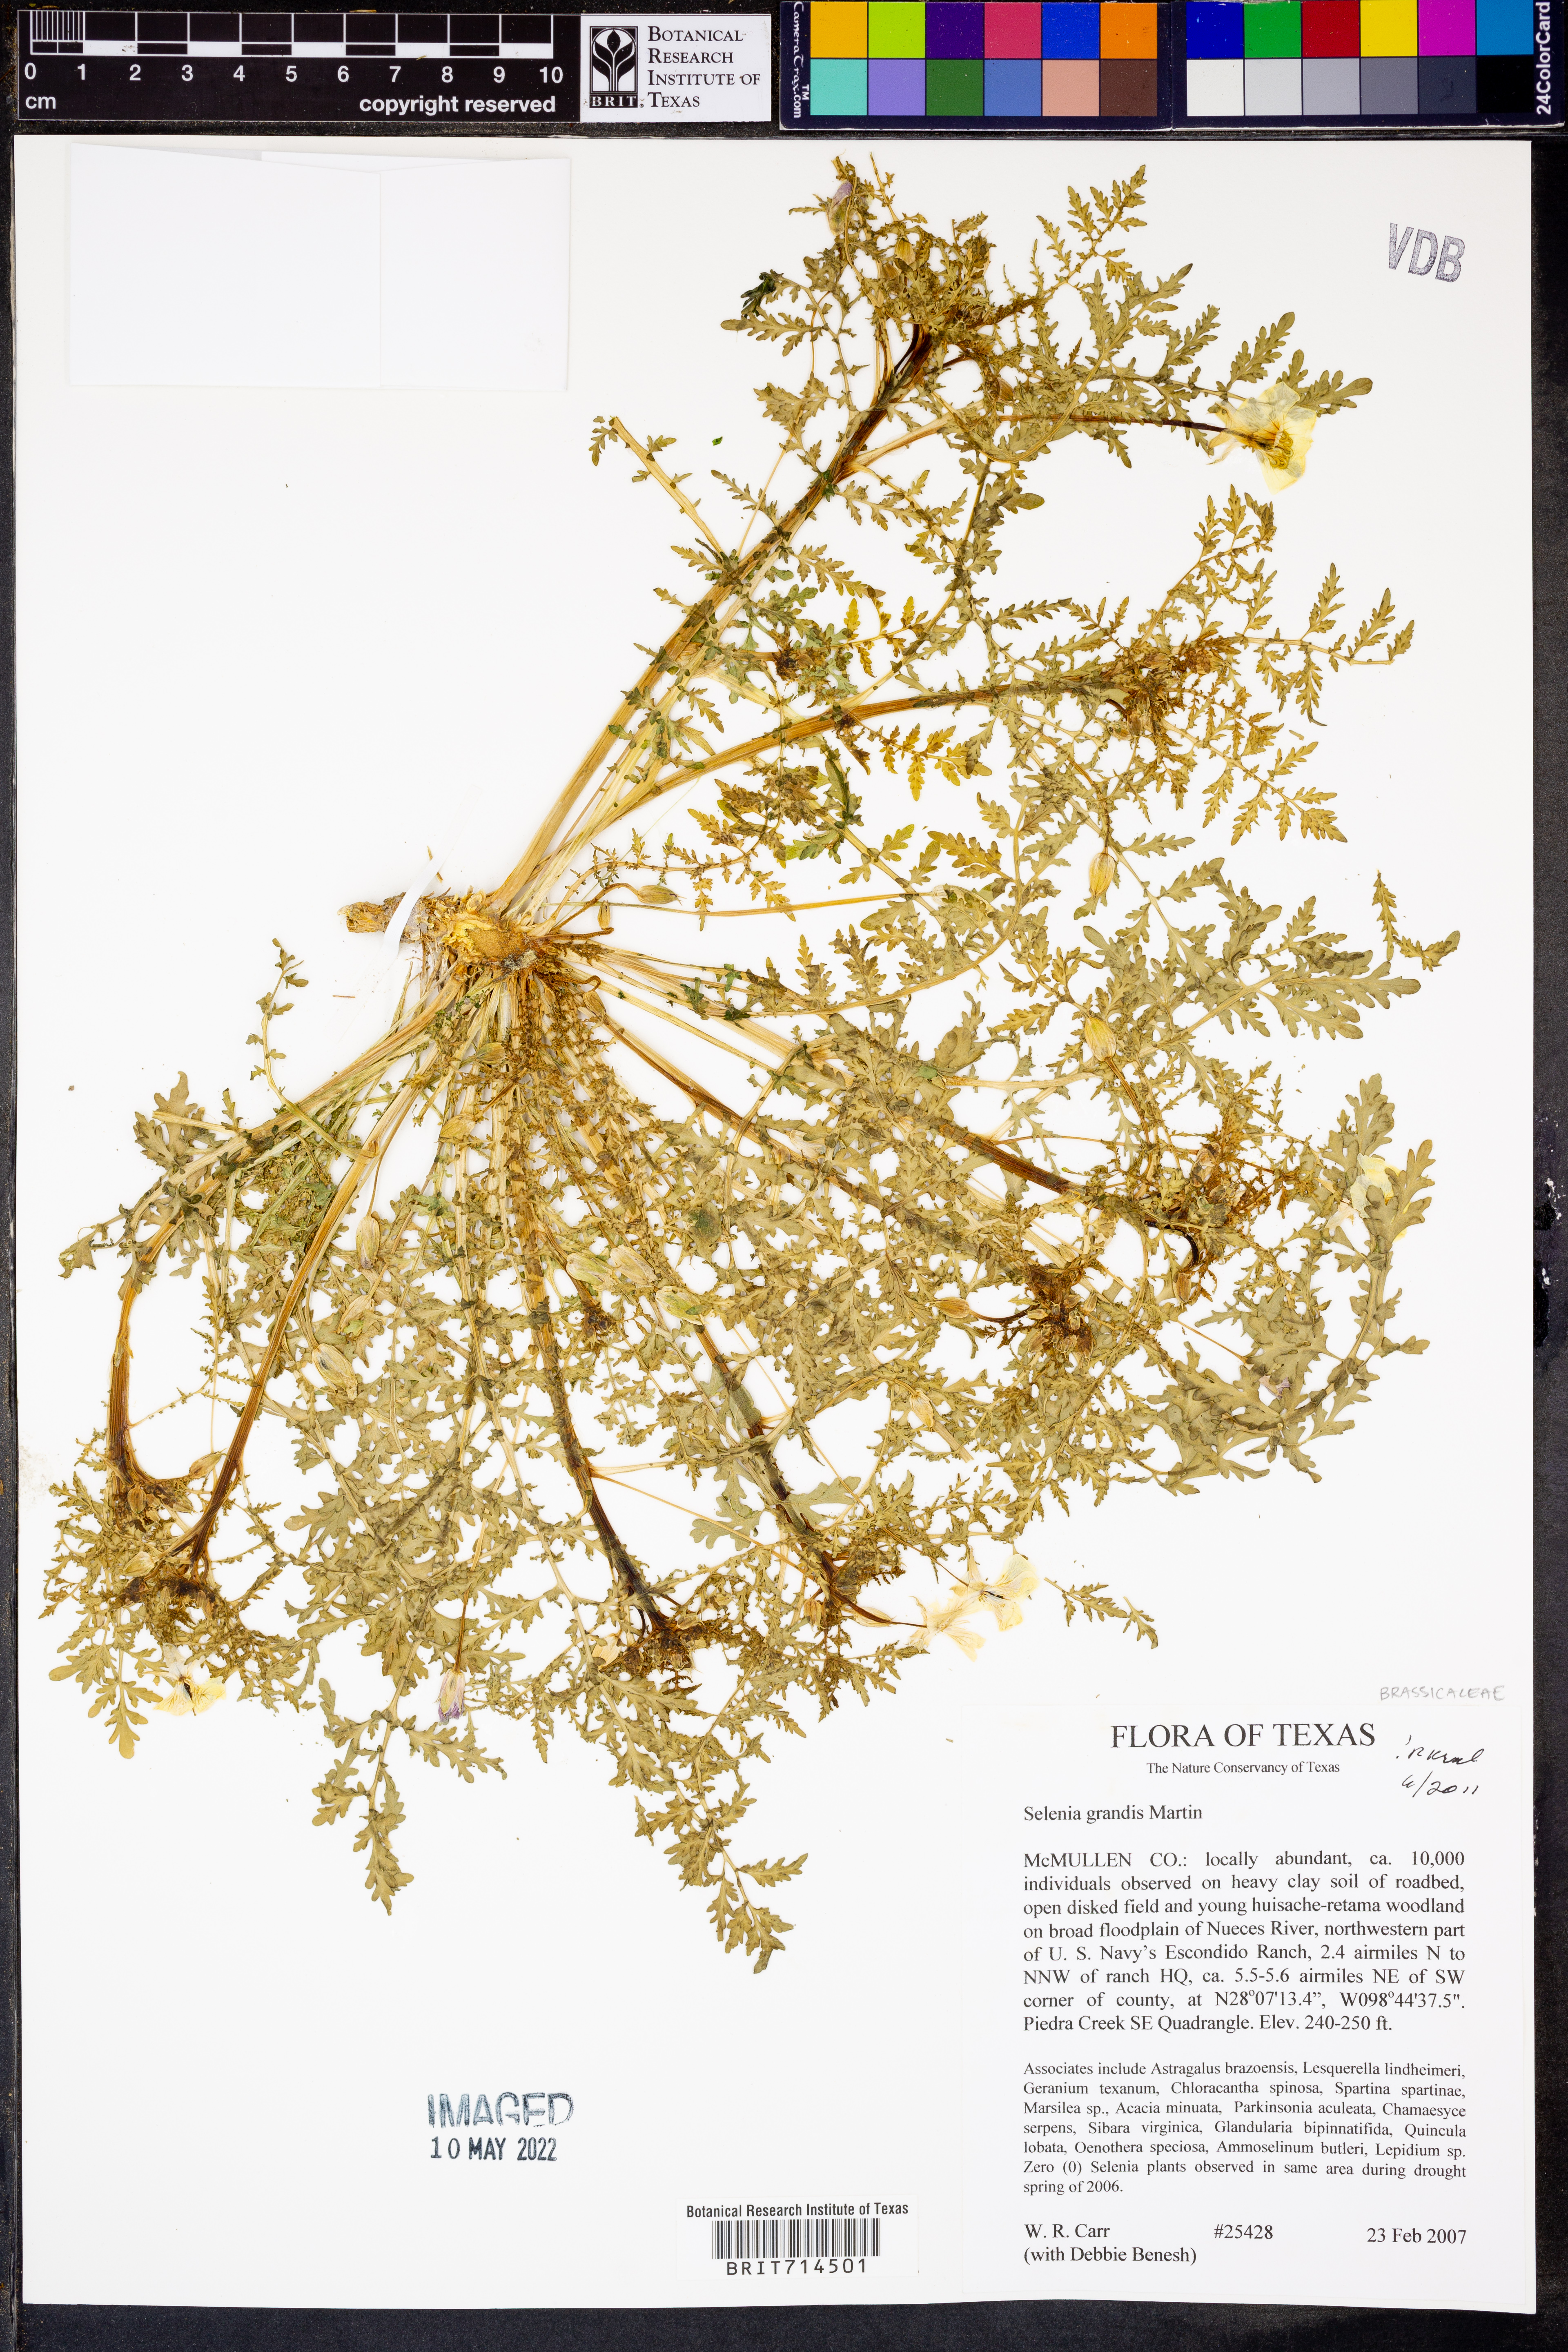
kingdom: Plantae
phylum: Tracheophyta
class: Magnoliopsida
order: Brassicales
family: Brassicaceae
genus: Selenia
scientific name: Selenia grandis
